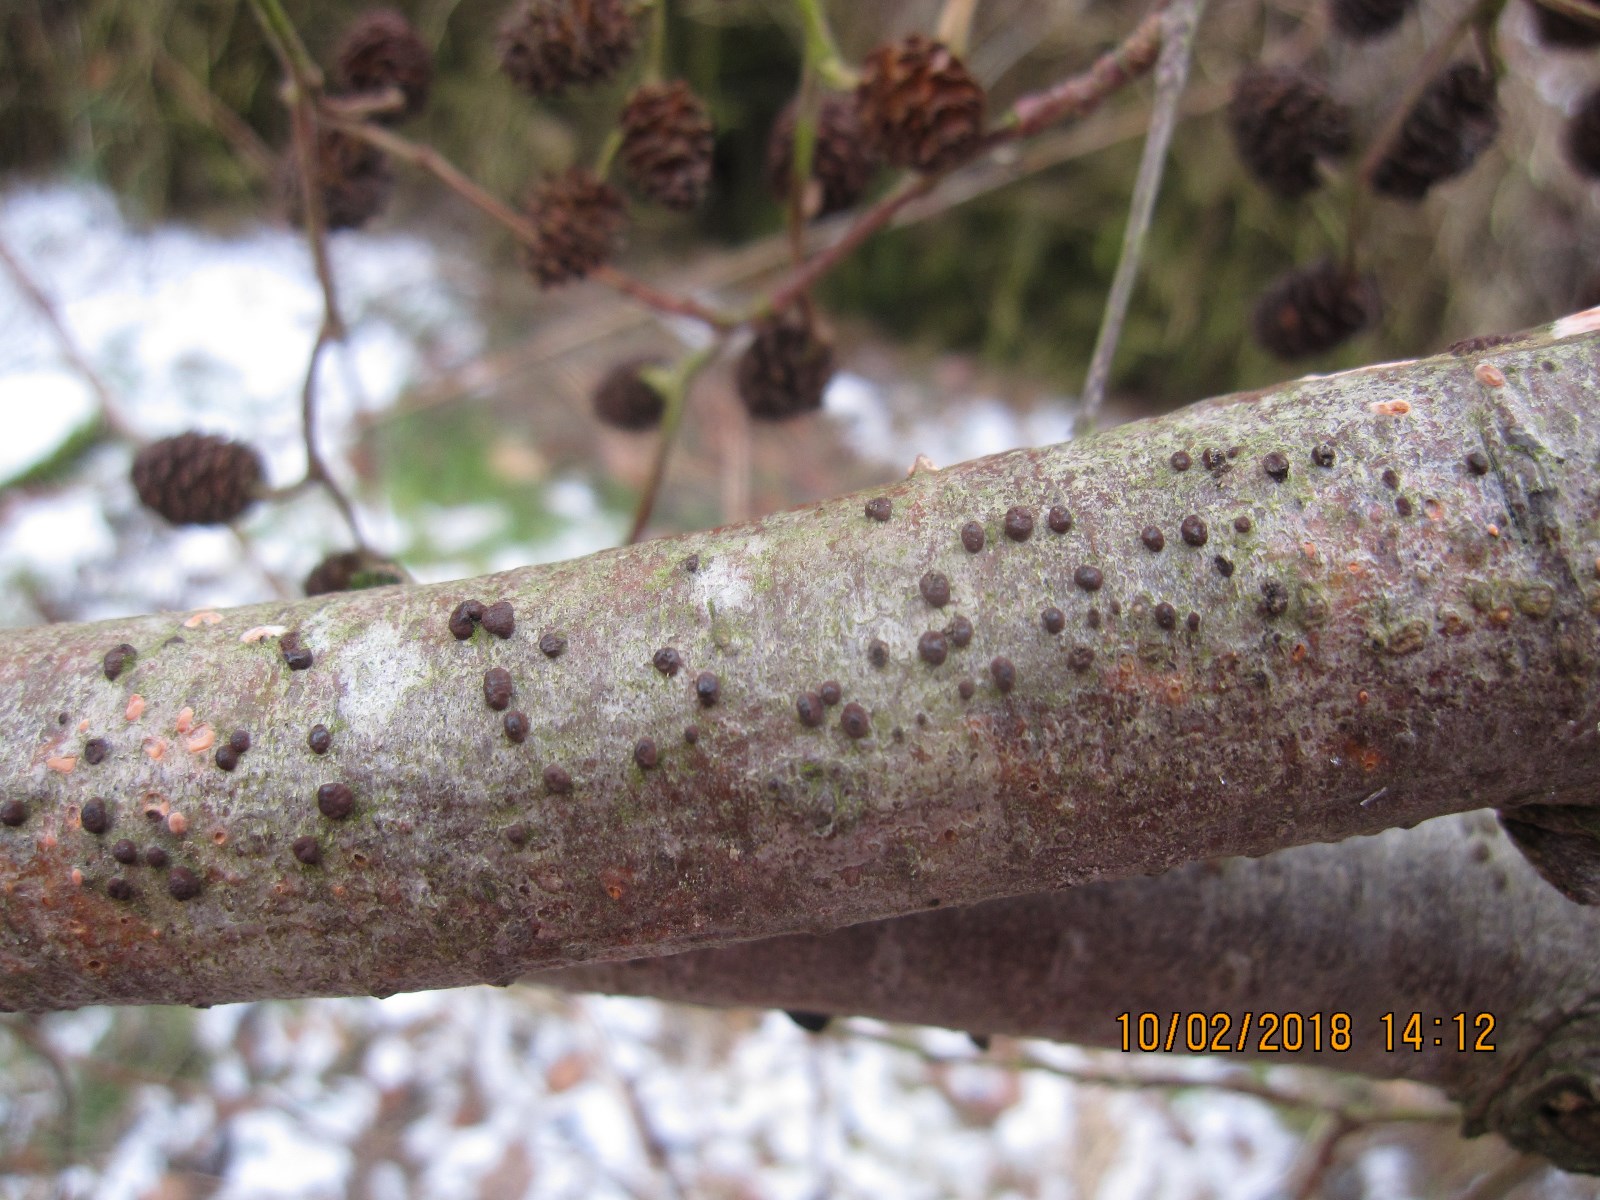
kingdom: Fungi
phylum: Ascomycota
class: Sordariomycetes
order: Xylariales
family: Hypoxylaceae
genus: Hypoxylon
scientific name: Hypoxylon fuscoides
